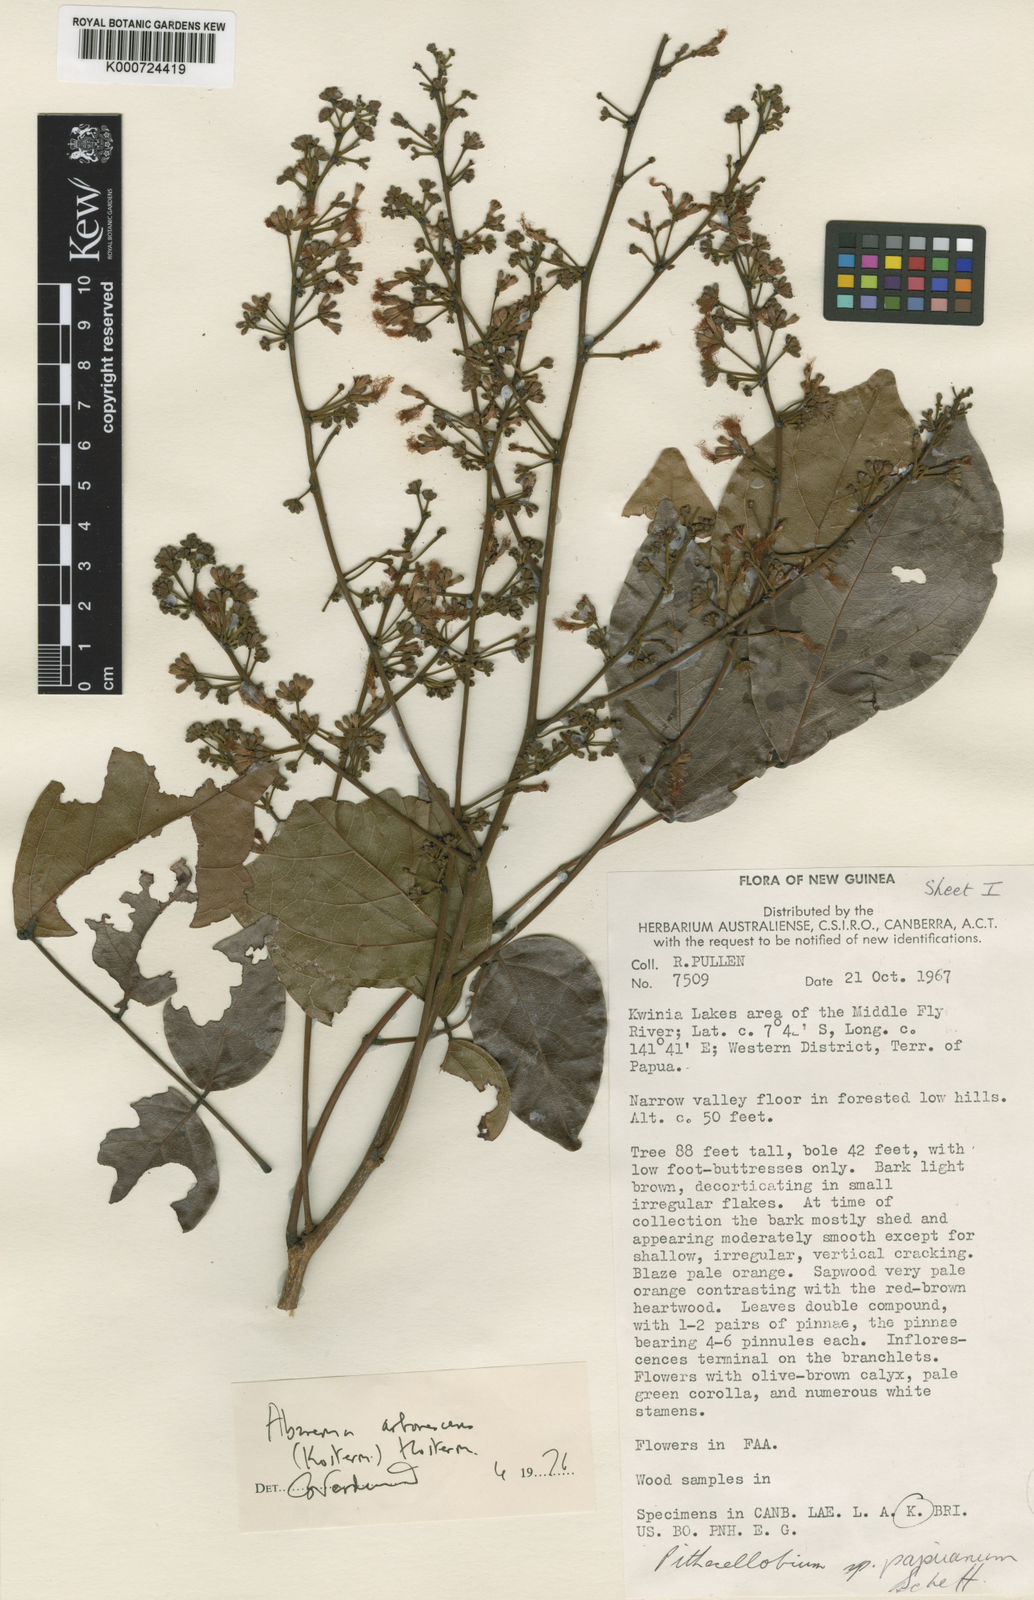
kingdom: Plantae
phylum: Tracheophyta
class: Magnoliopsida
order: Fabales
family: Fabaceae
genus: Archidendron
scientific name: Archidendron arborescens
